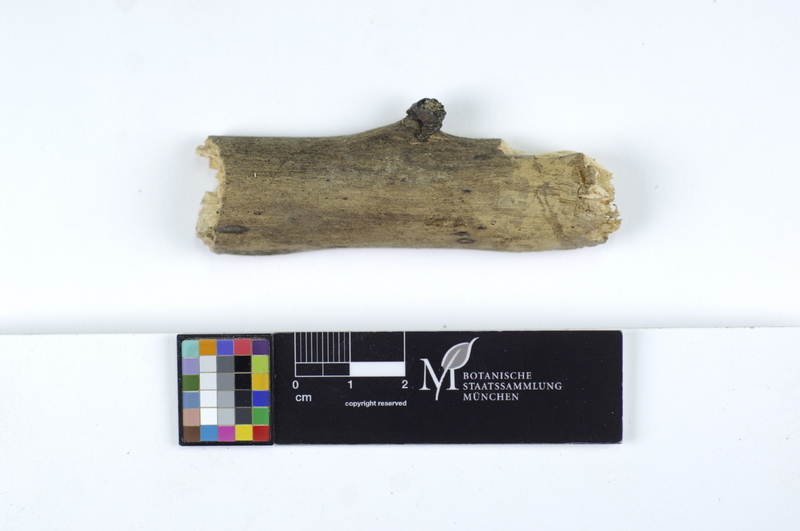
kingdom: Plantae
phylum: Tracheophyta
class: Magnoliopsida
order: Rosales
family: Ulmaceae
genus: Ulmus
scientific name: Ulmus
